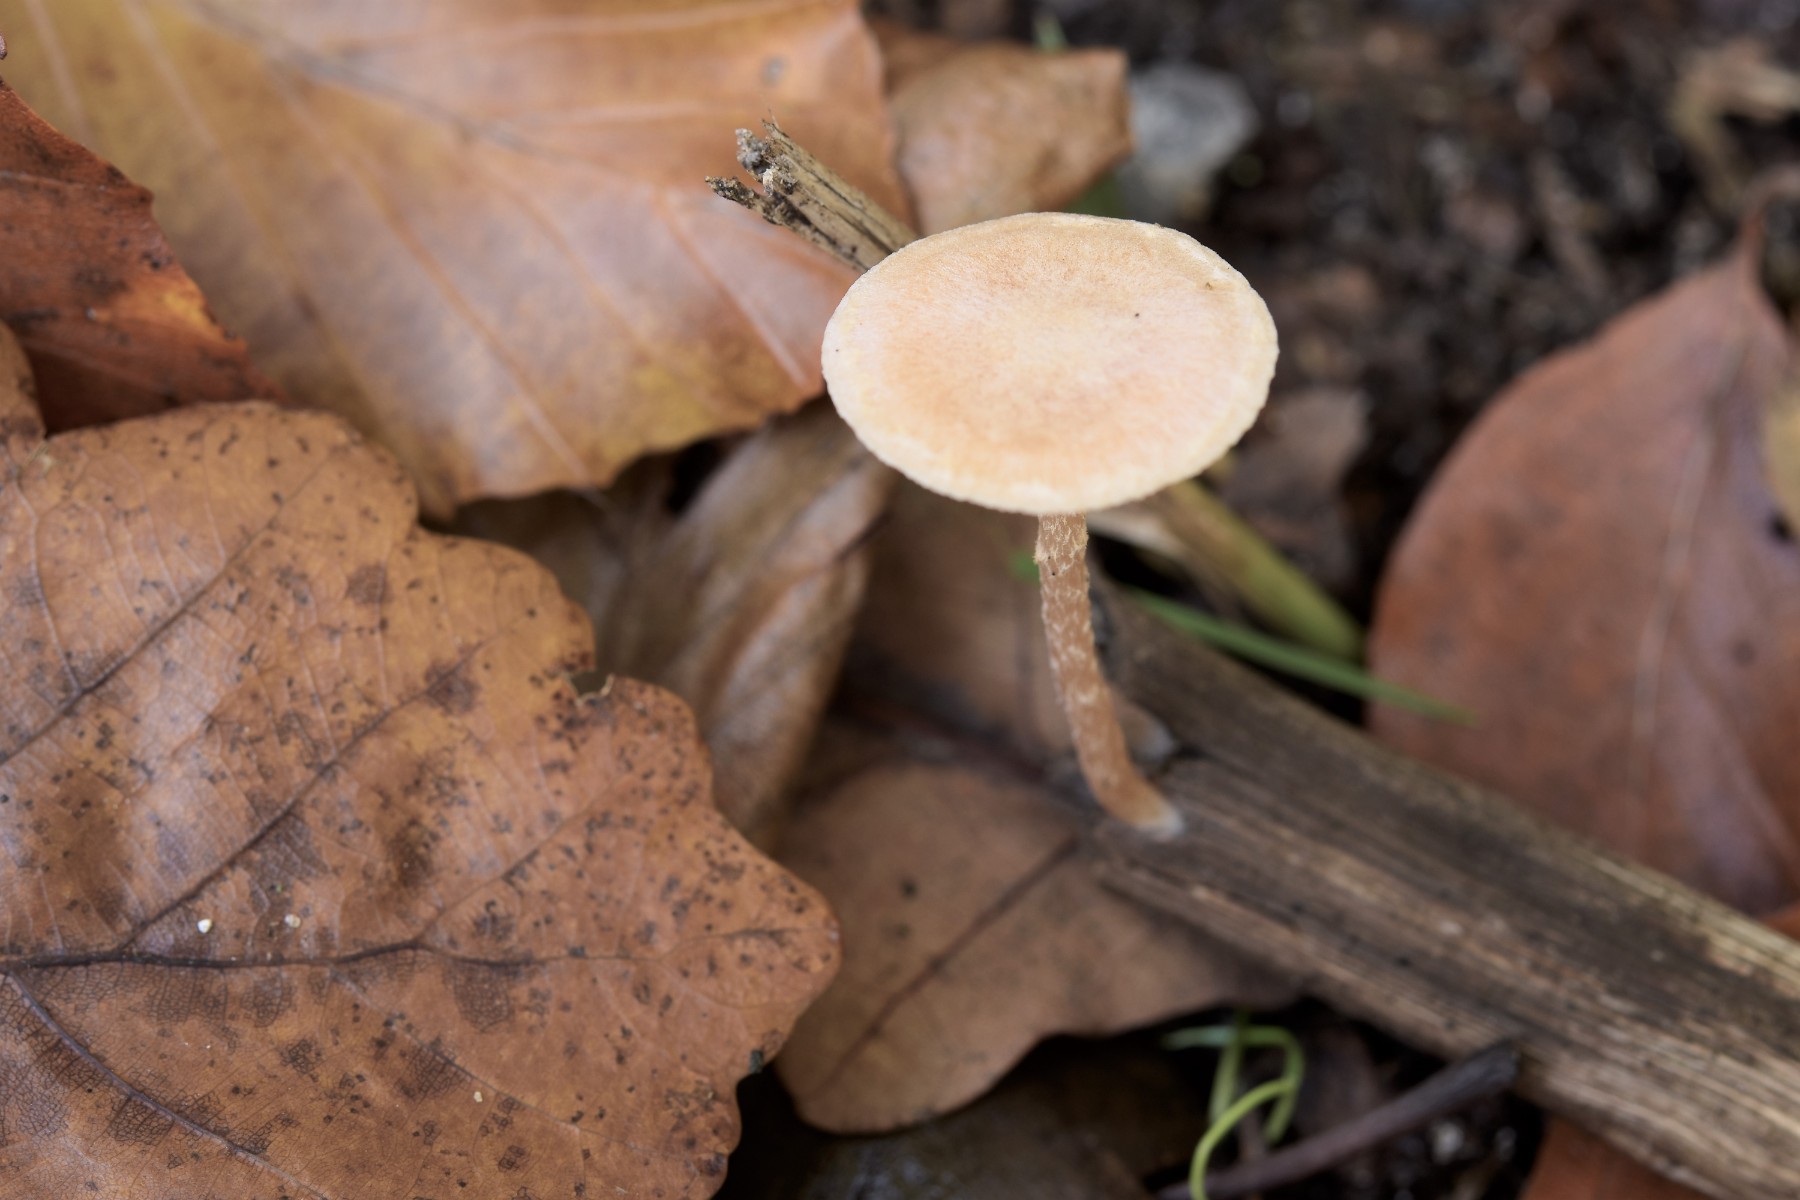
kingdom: Fungi
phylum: Basidiomycota
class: Agaricomycetes
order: Agaricales
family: Tubariaceae
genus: Tubaria
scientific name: Tubaria conspersa
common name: bleg fnughat
